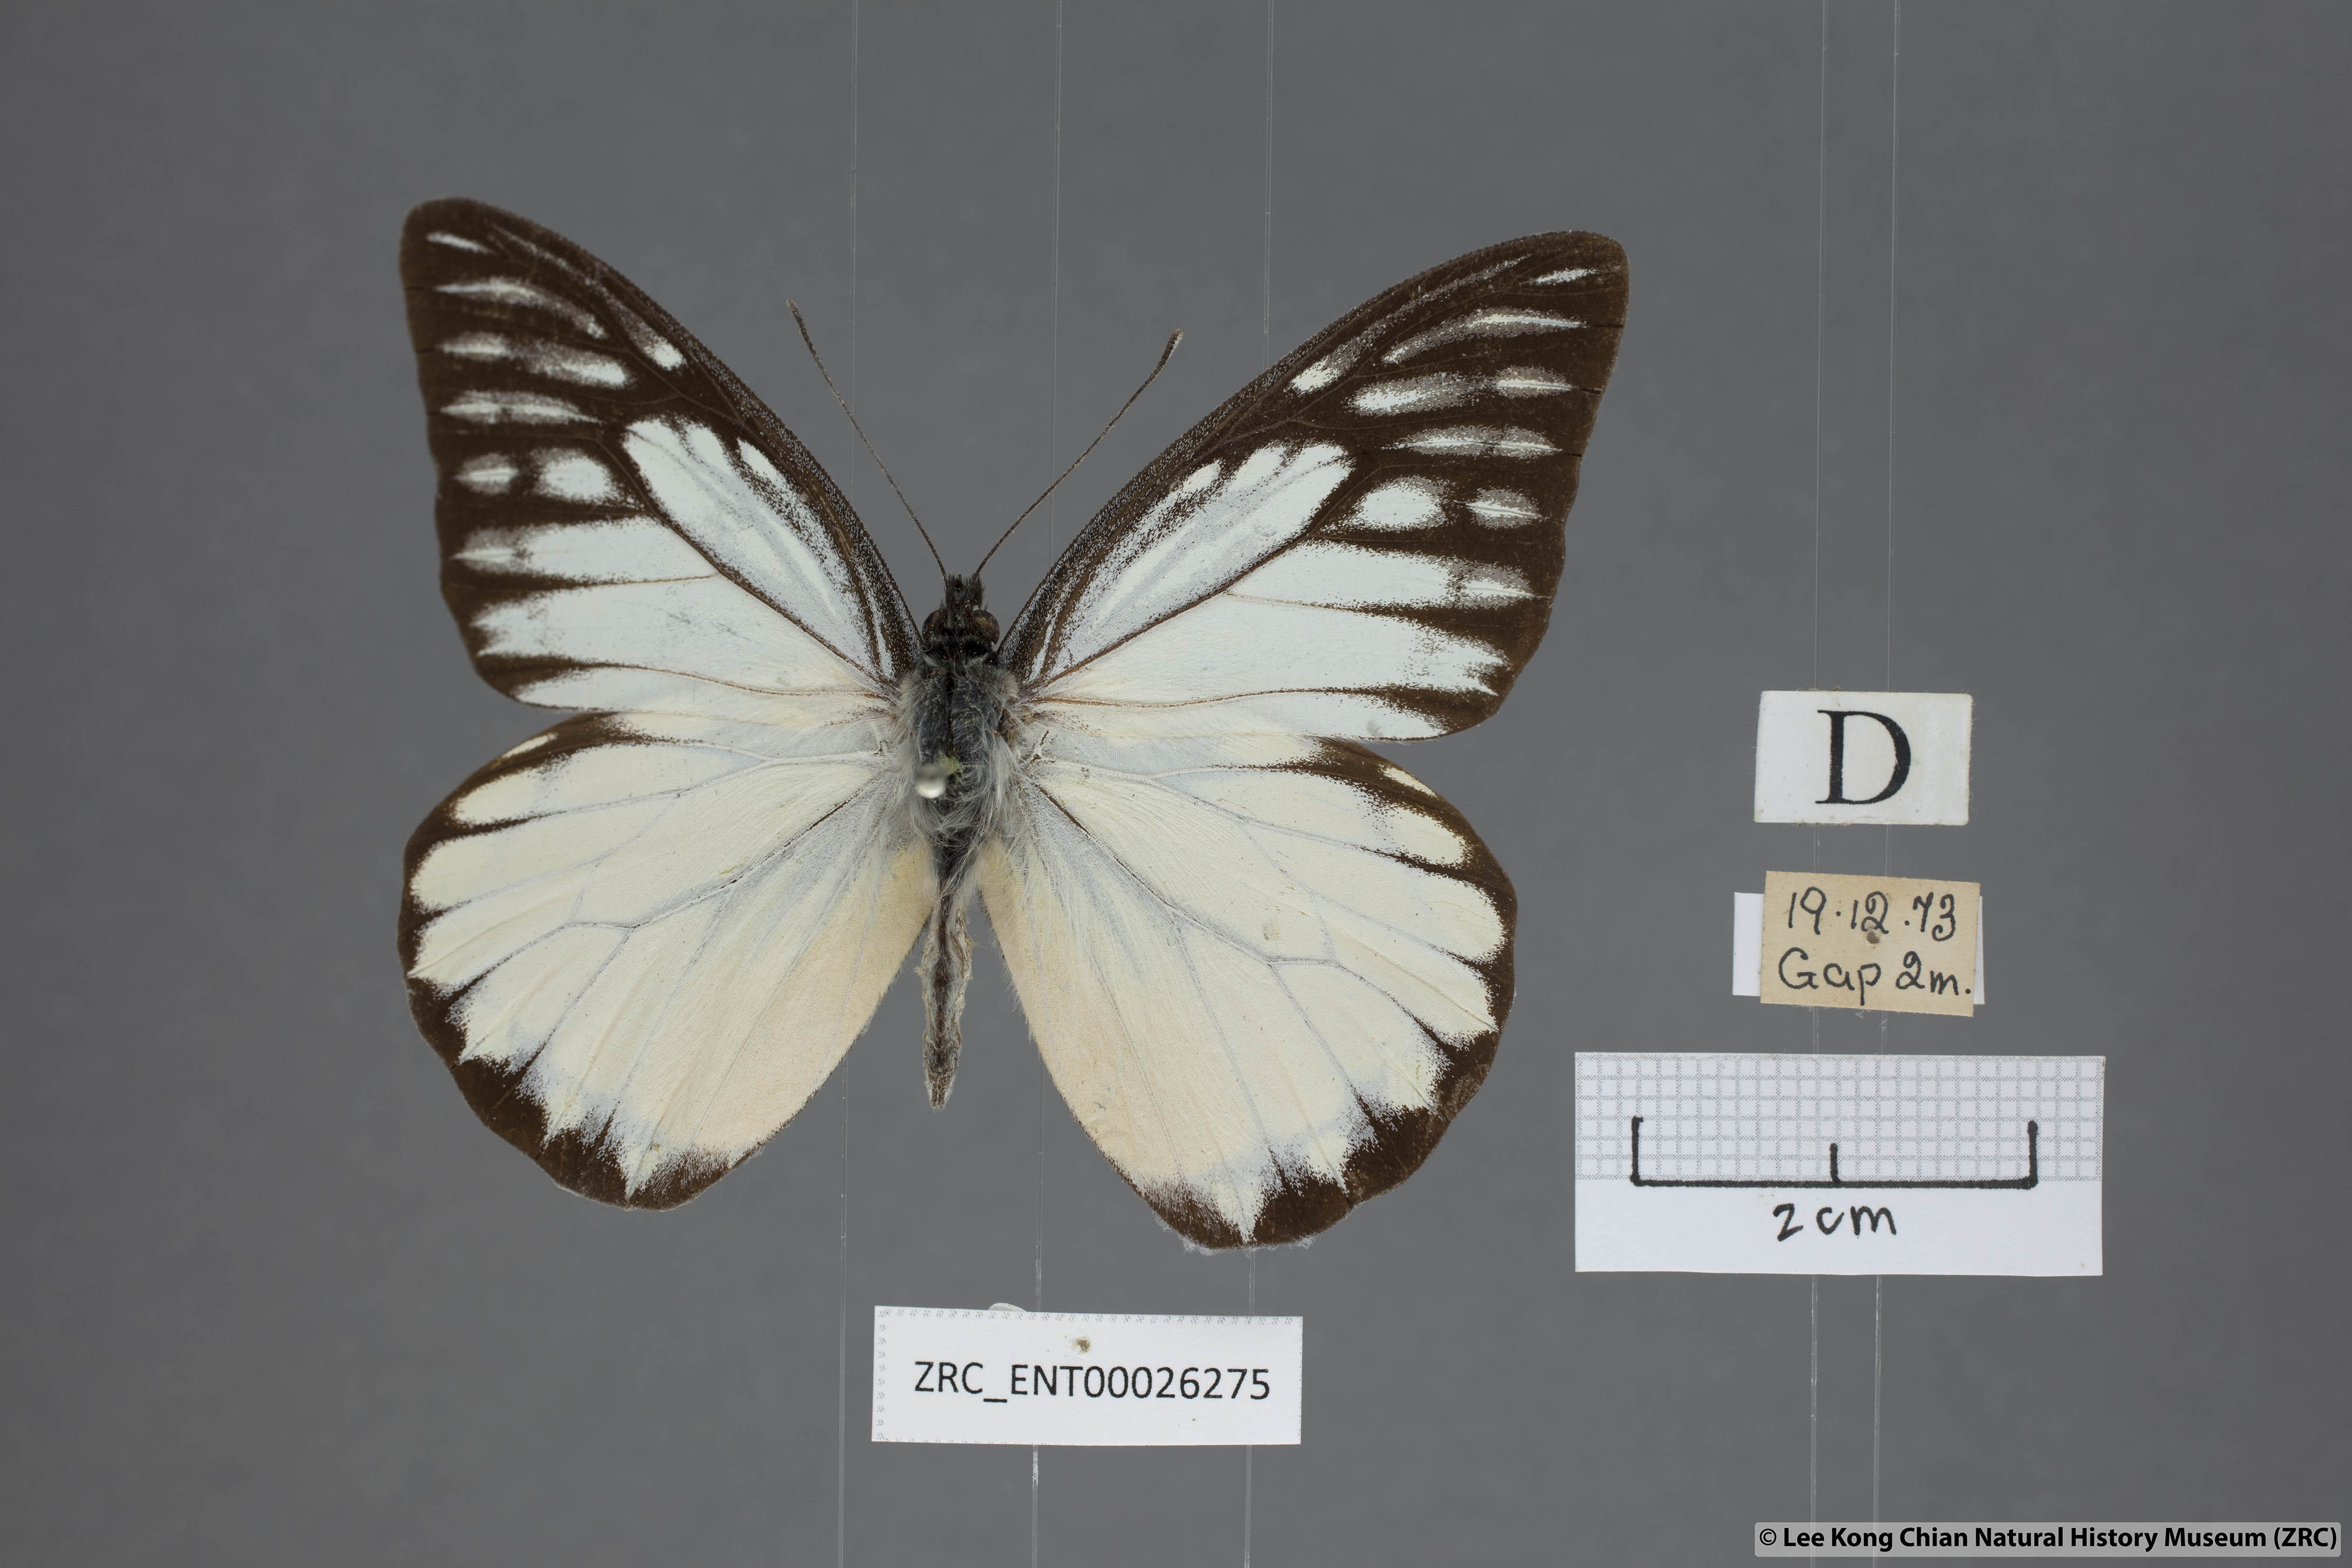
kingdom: Animalia
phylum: Arthropoda
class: Insecta
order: Lepidoptera
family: Pieridae
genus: Prioneris
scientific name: Prioneris thestylis
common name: Spotted sawtooth
